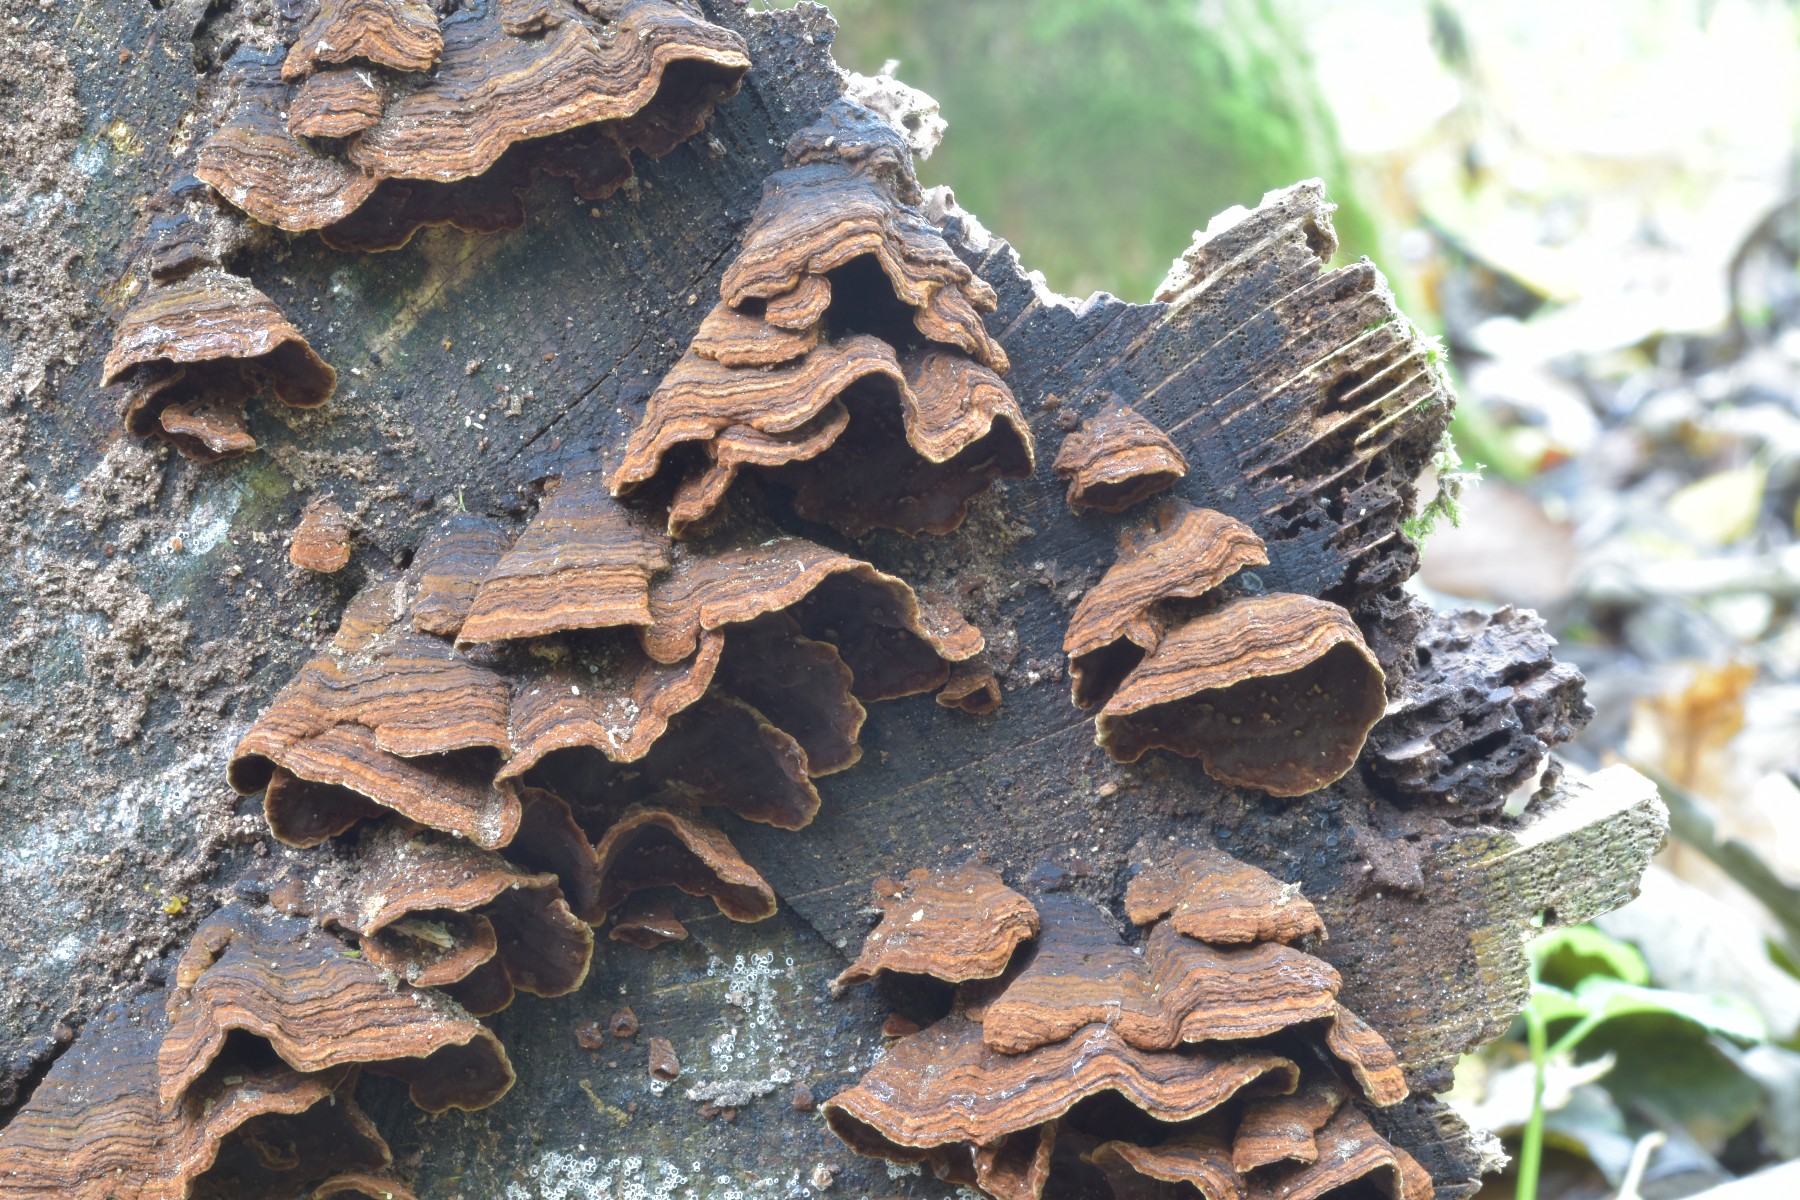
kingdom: Fungi
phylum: Basidiomycota
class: Agaricomycetes
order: Hymenochaetales
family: Hymenochaetaceae
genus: Hymenochaete
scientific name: Hymenochaete rubiginosa
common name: stiv ruslædersvamp
